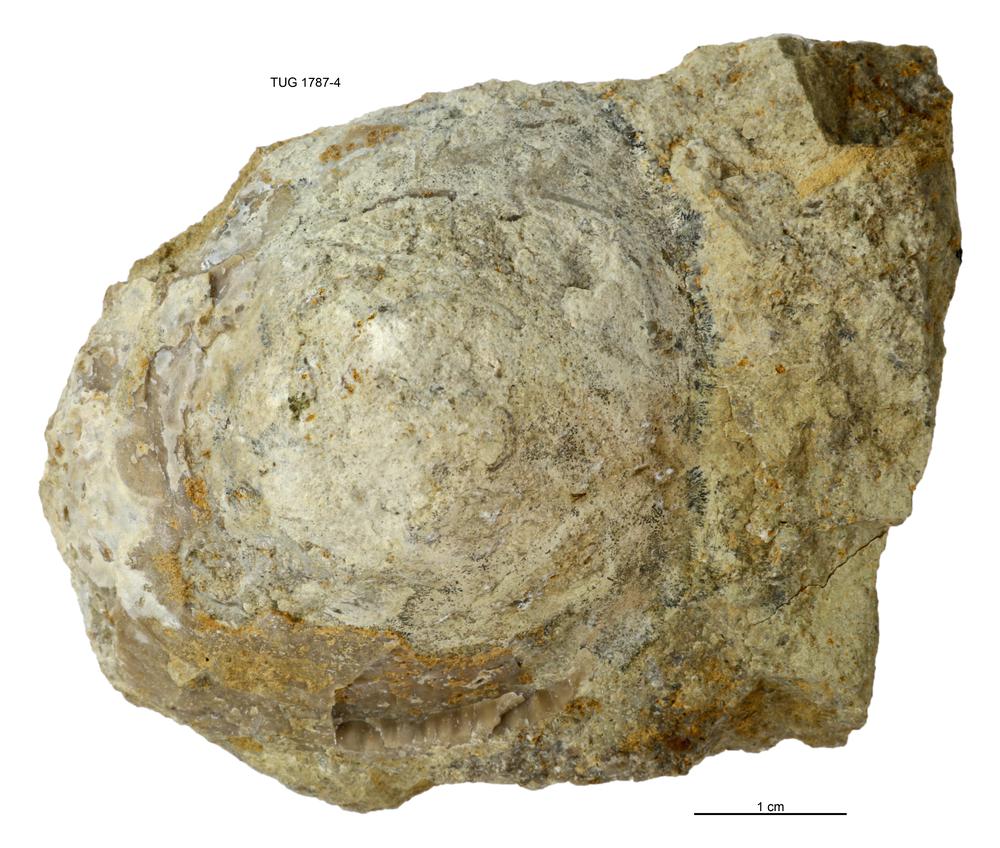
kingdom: Animalia
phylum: Mollusca
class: Monoplacophora
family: Metoptomatidae
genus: Metoptoma
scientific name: Metoptoma
